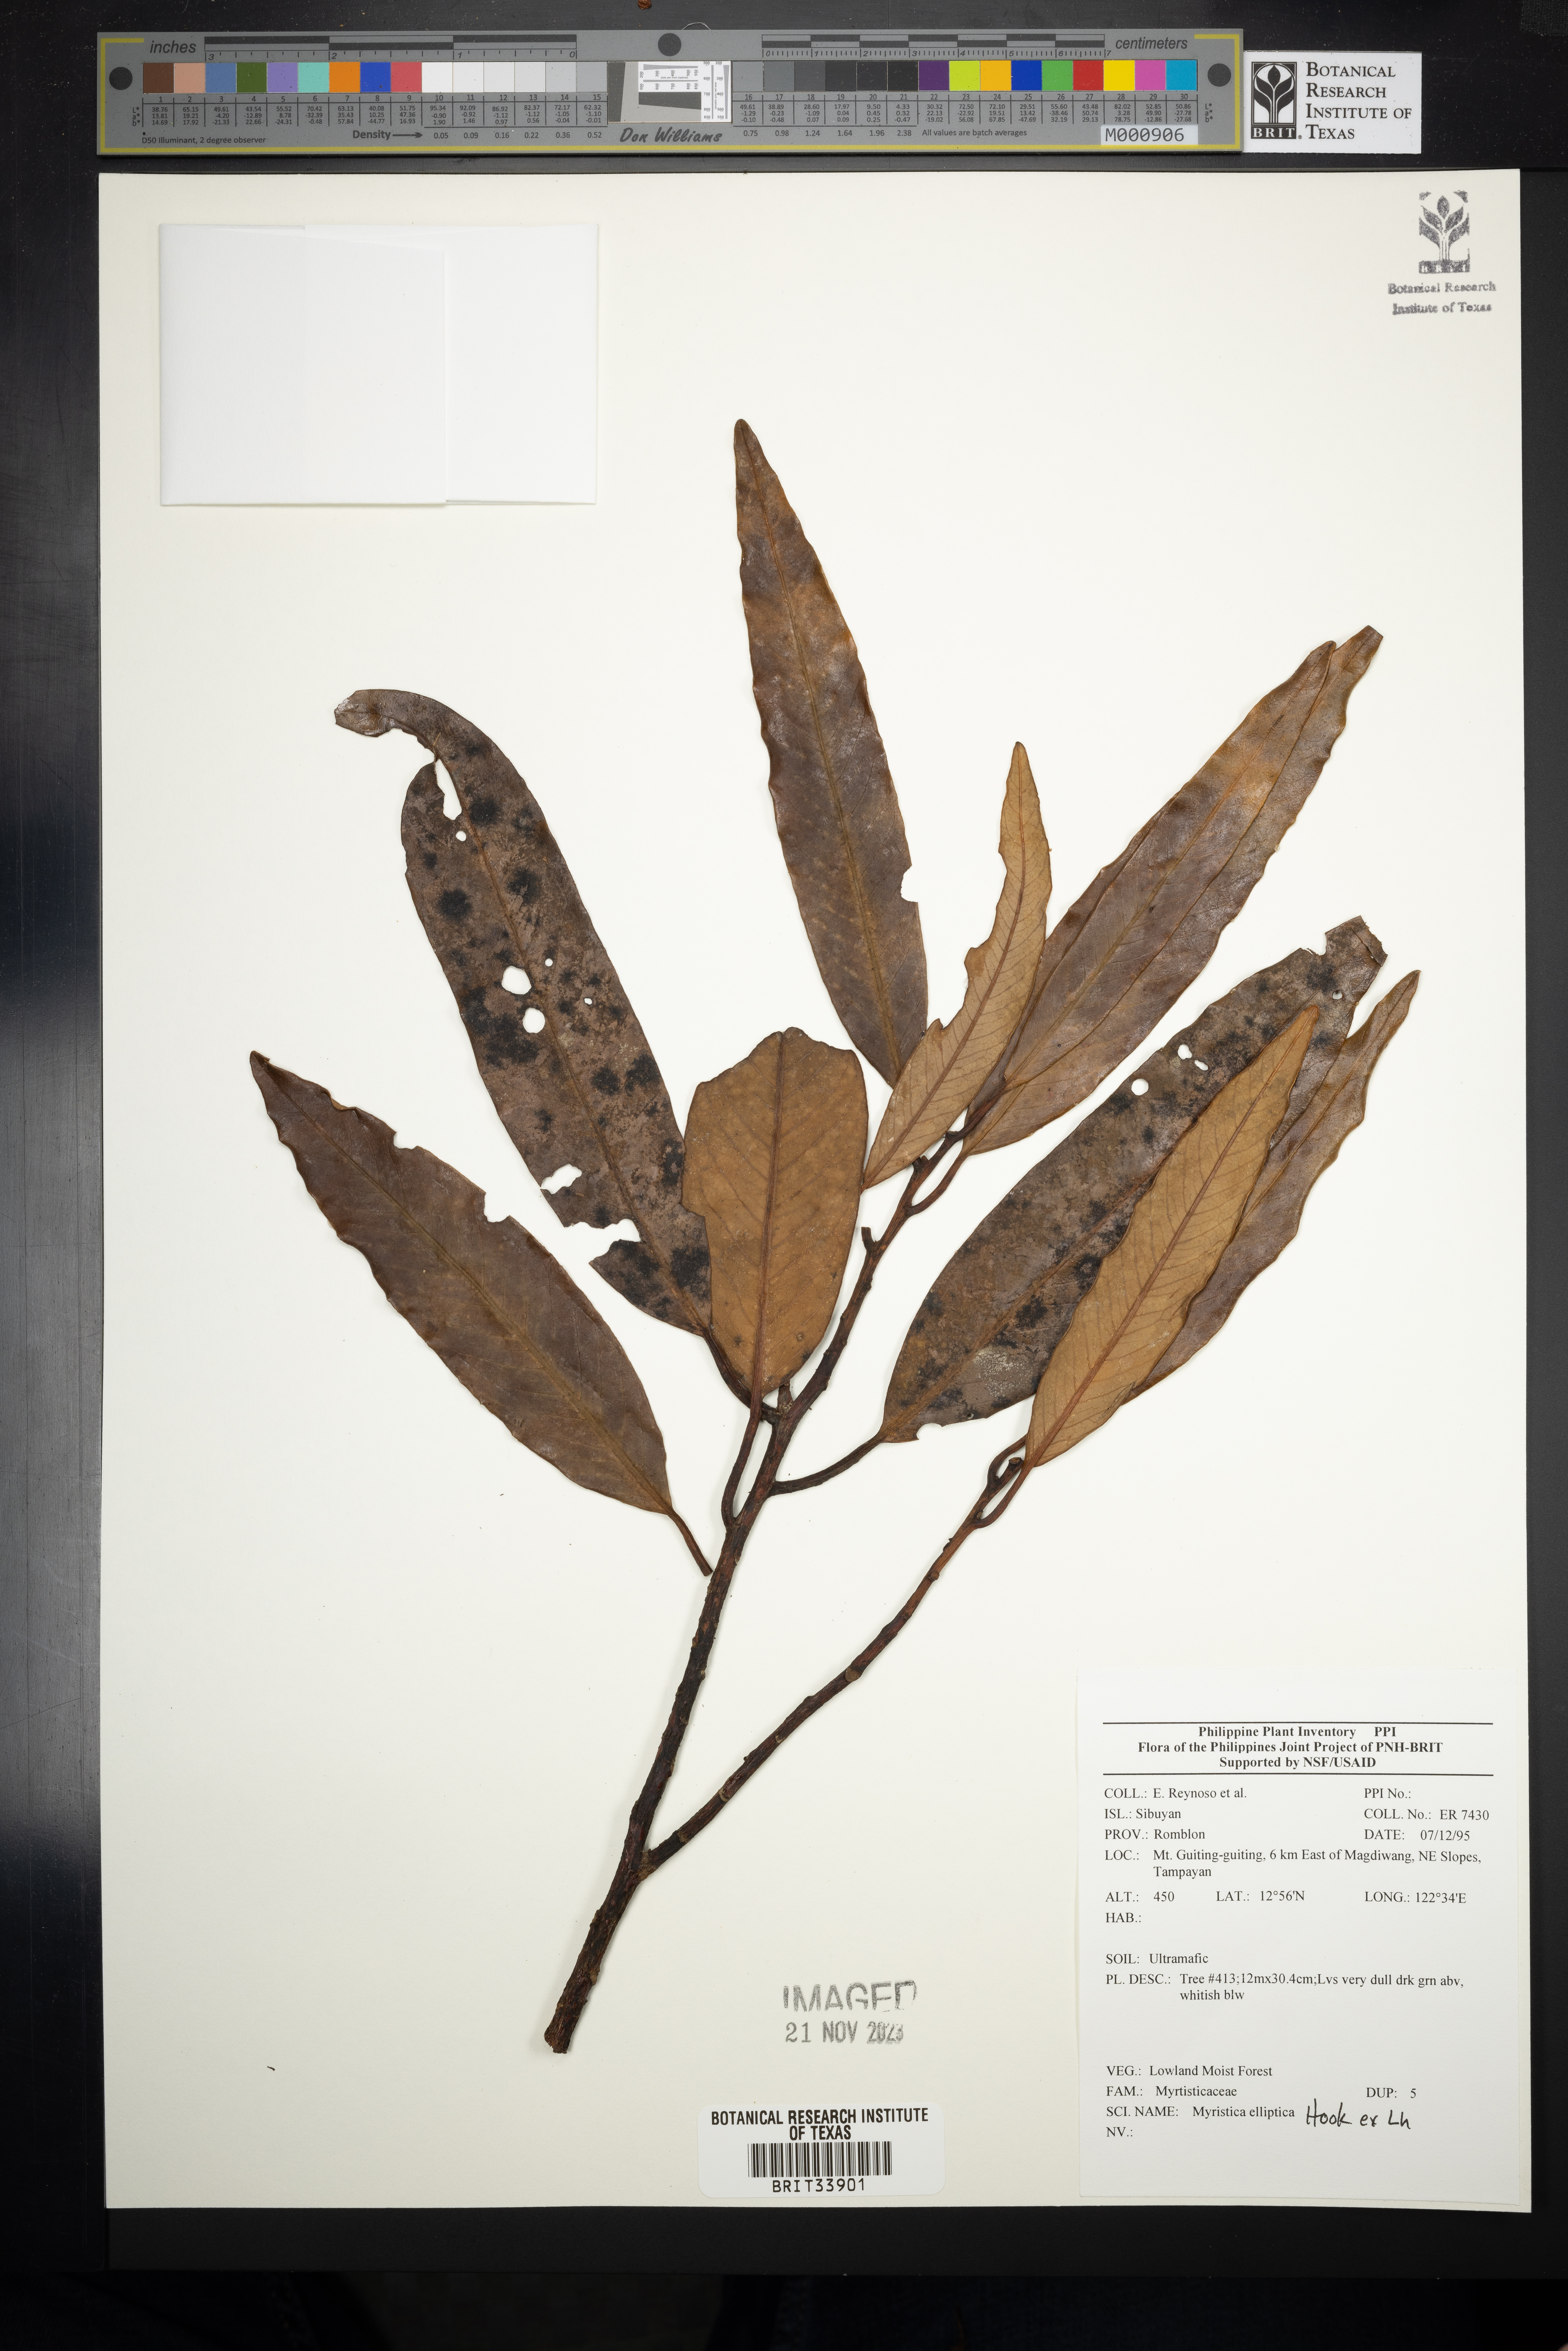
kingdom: Plantae
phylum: Tracheophyta
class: Magnoliopsida
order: Magnoliales
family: Myristicaceae
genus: Myristica
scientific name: Myristica
